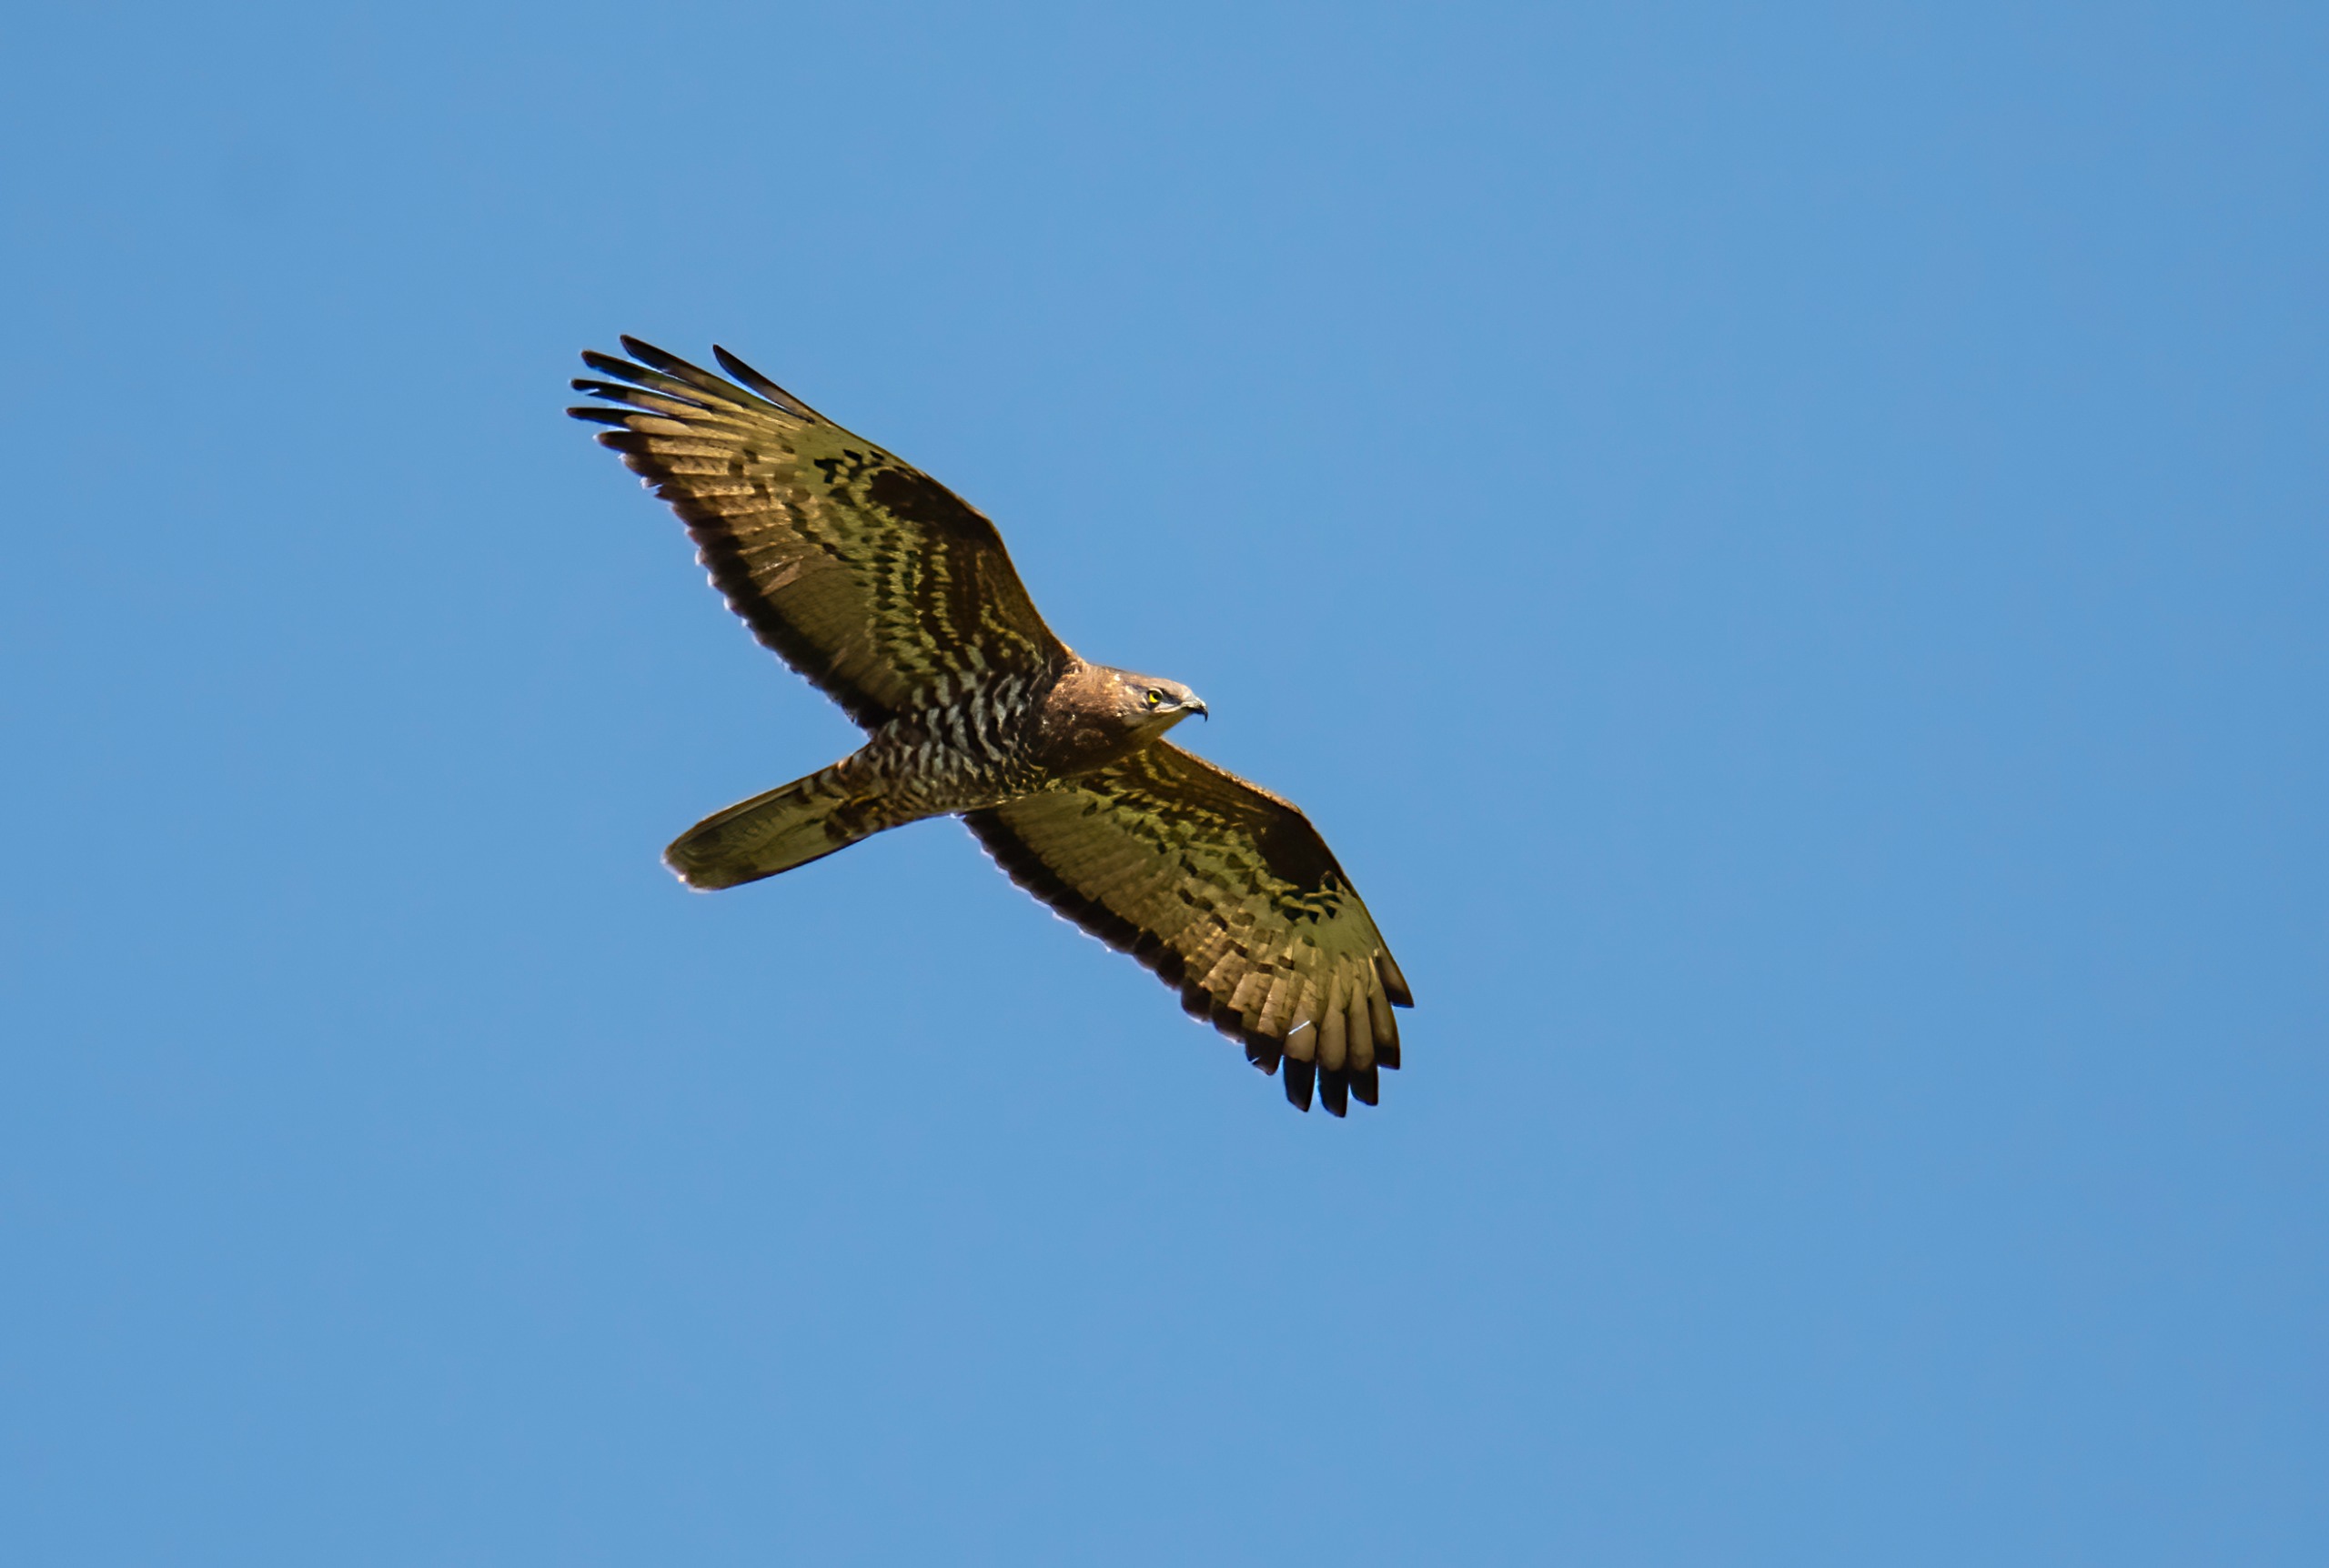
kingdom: Animalia
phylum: Chordata
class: Aves
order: Accipitriformes
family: Accipitridae
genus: Pernis
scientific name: Pernis apivorus
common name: Hvepsevåge
